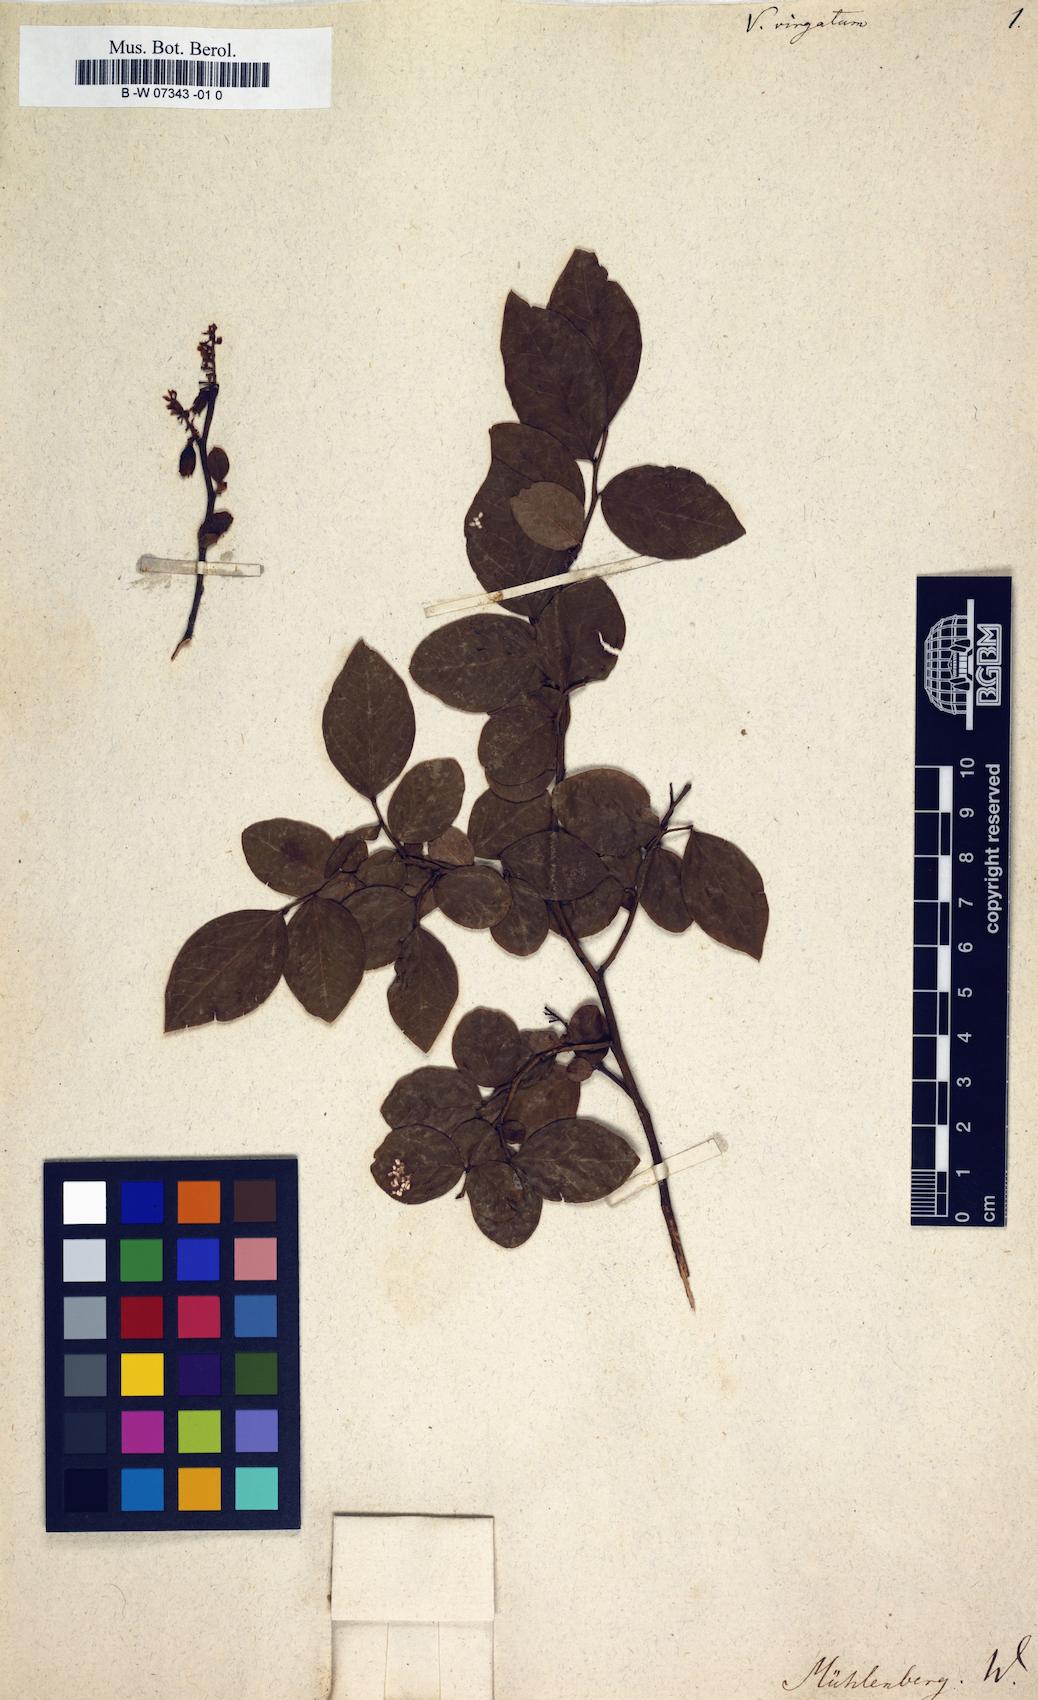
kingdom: Plantae
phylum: Tracheophyta
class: Magnoliopsida
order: Ericales
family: Ericaceae
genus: Vaccinium
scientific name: Vaccinium
